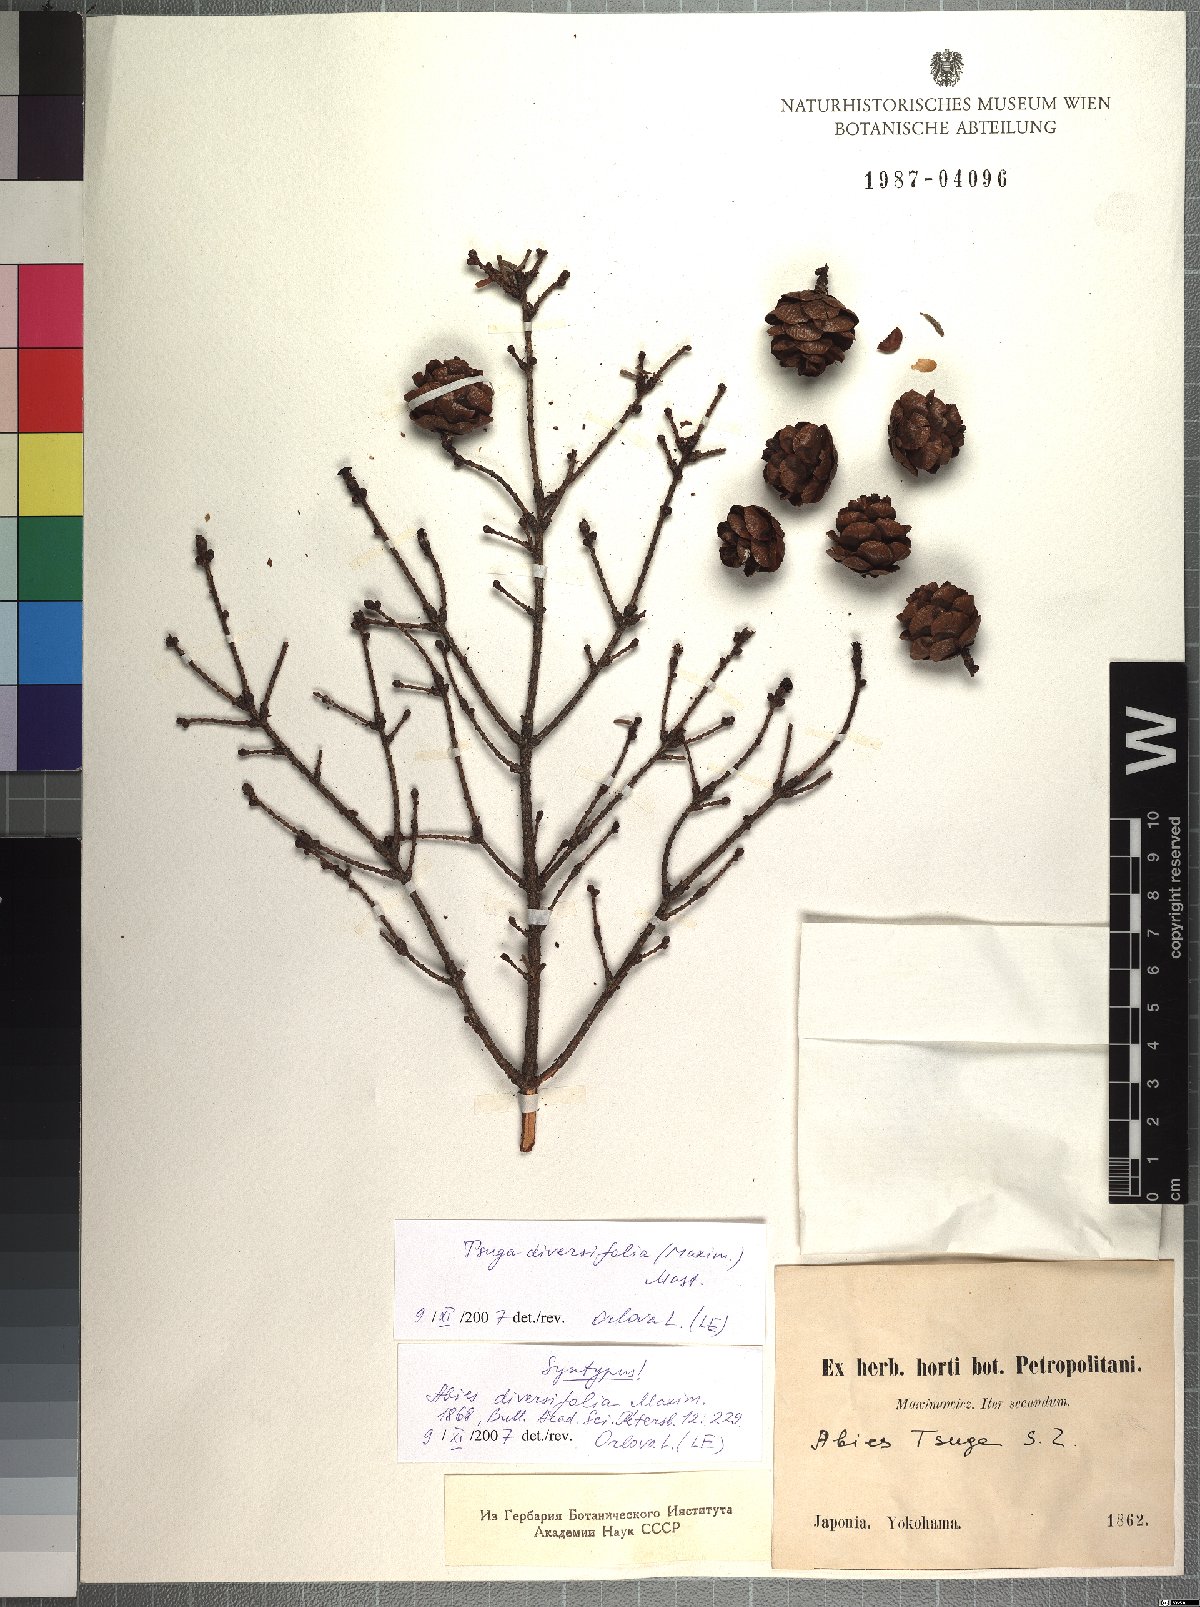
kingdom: Plantae
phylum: Tracheophyta
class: Pinopsida
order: Pinales
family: Pinaceae
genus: Tsuga
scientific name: Tsuga diversifolia
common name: Northern japanese hemlock
